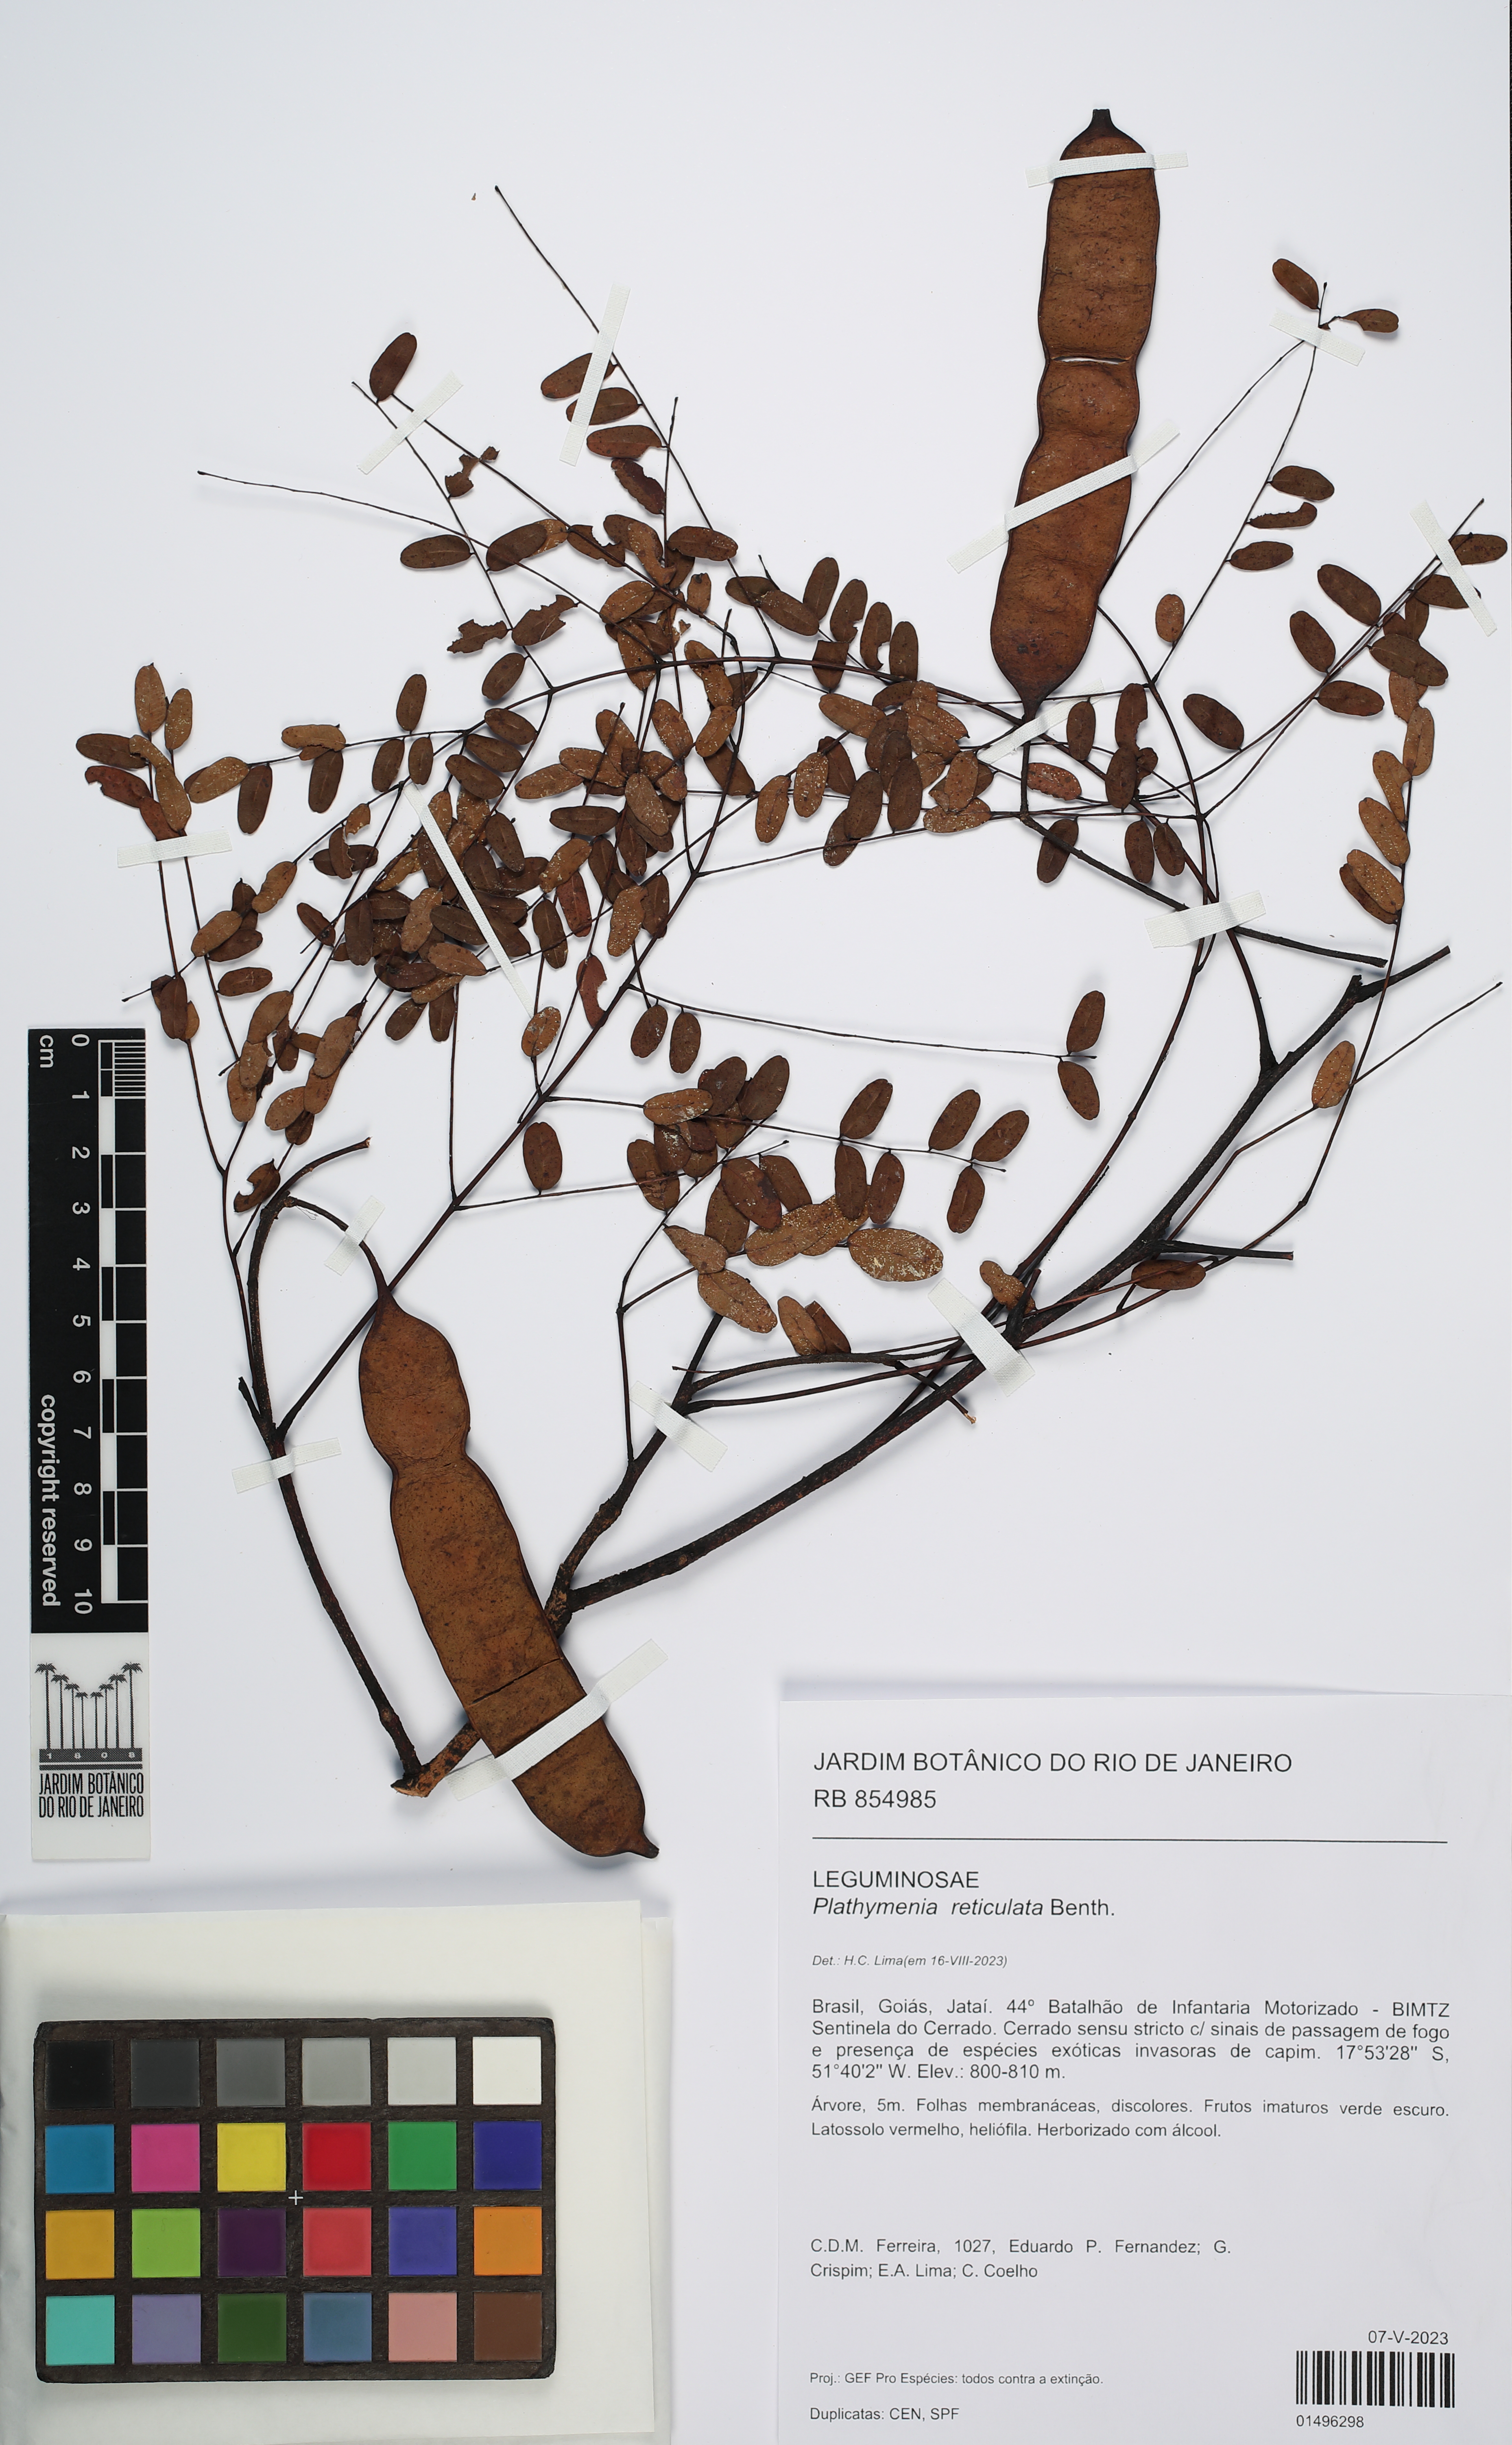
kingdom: Plantae
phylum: Tracheophyta
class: Magnoliopsida
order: Fabales
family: Fabaceae
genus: Plathymenia
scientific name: Plathymenia reticulata
